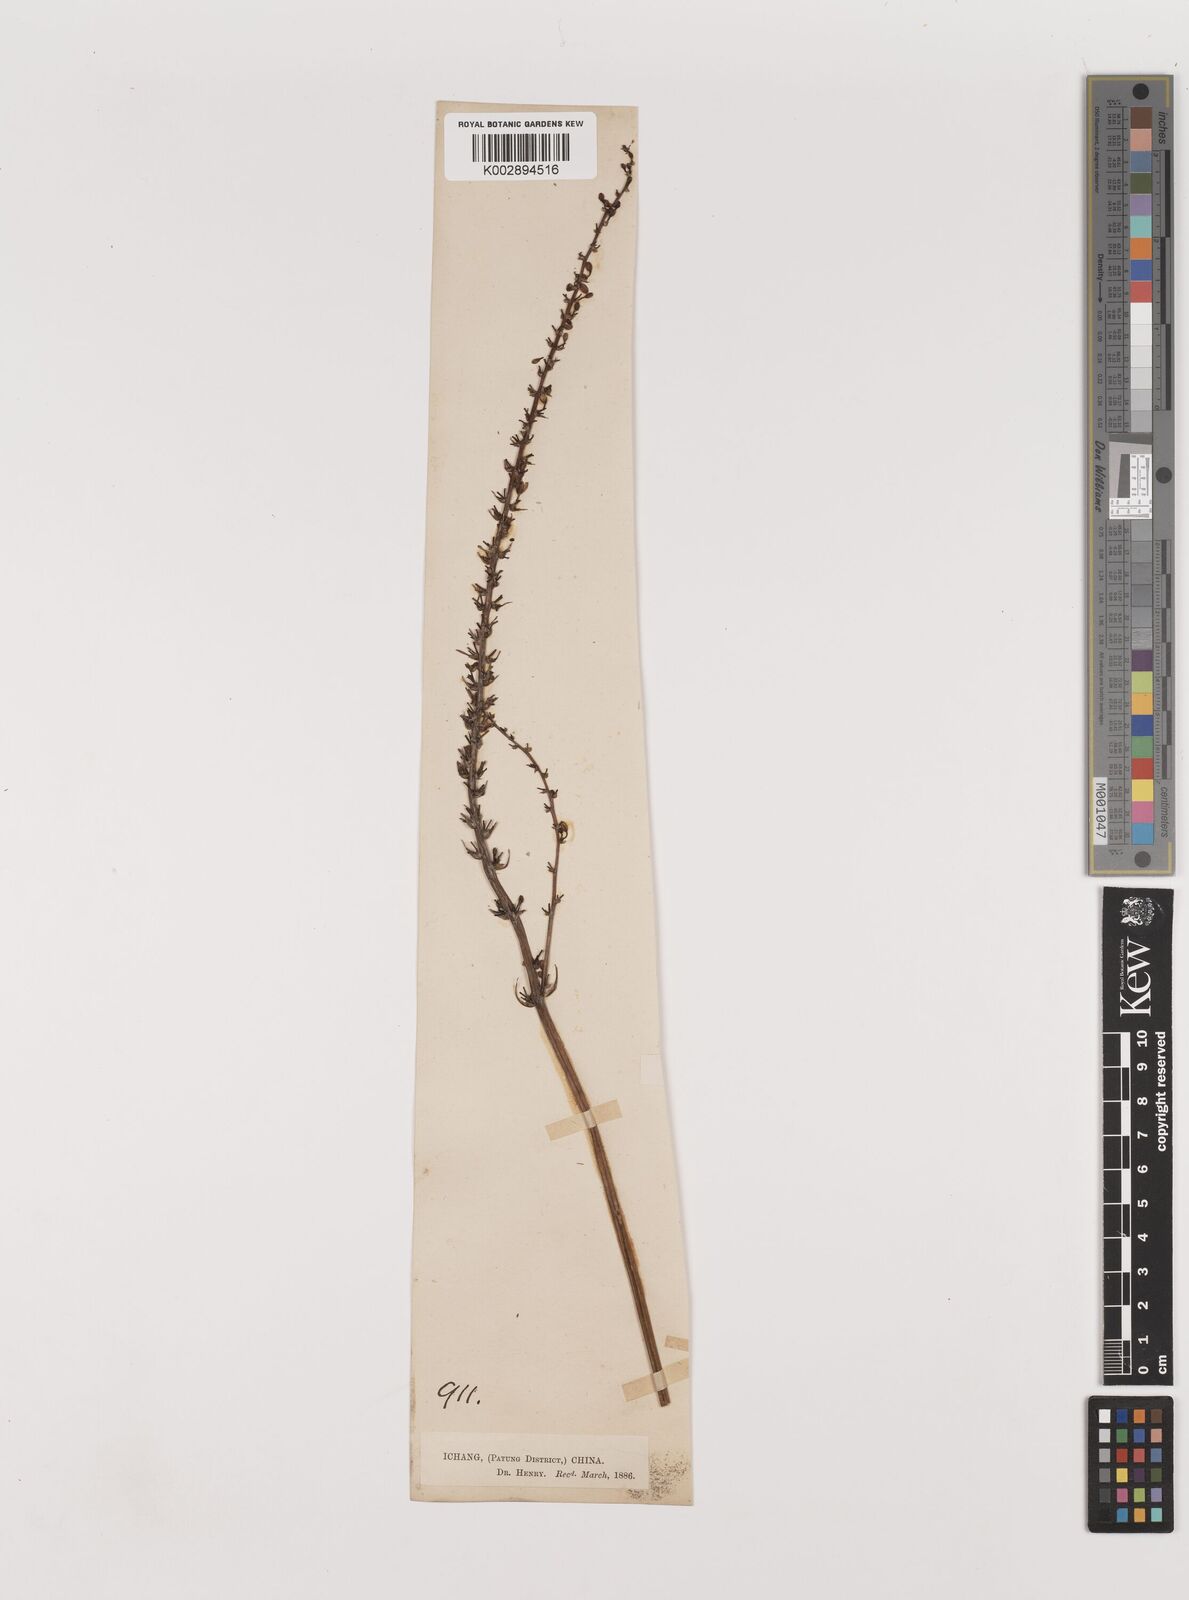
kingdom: Plantae
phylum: Tracheophyta
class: Liliopsida
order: Asparagales
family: Asparagaceae
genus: Liriope
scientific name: Liriope spicata
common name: Creeping liriope
